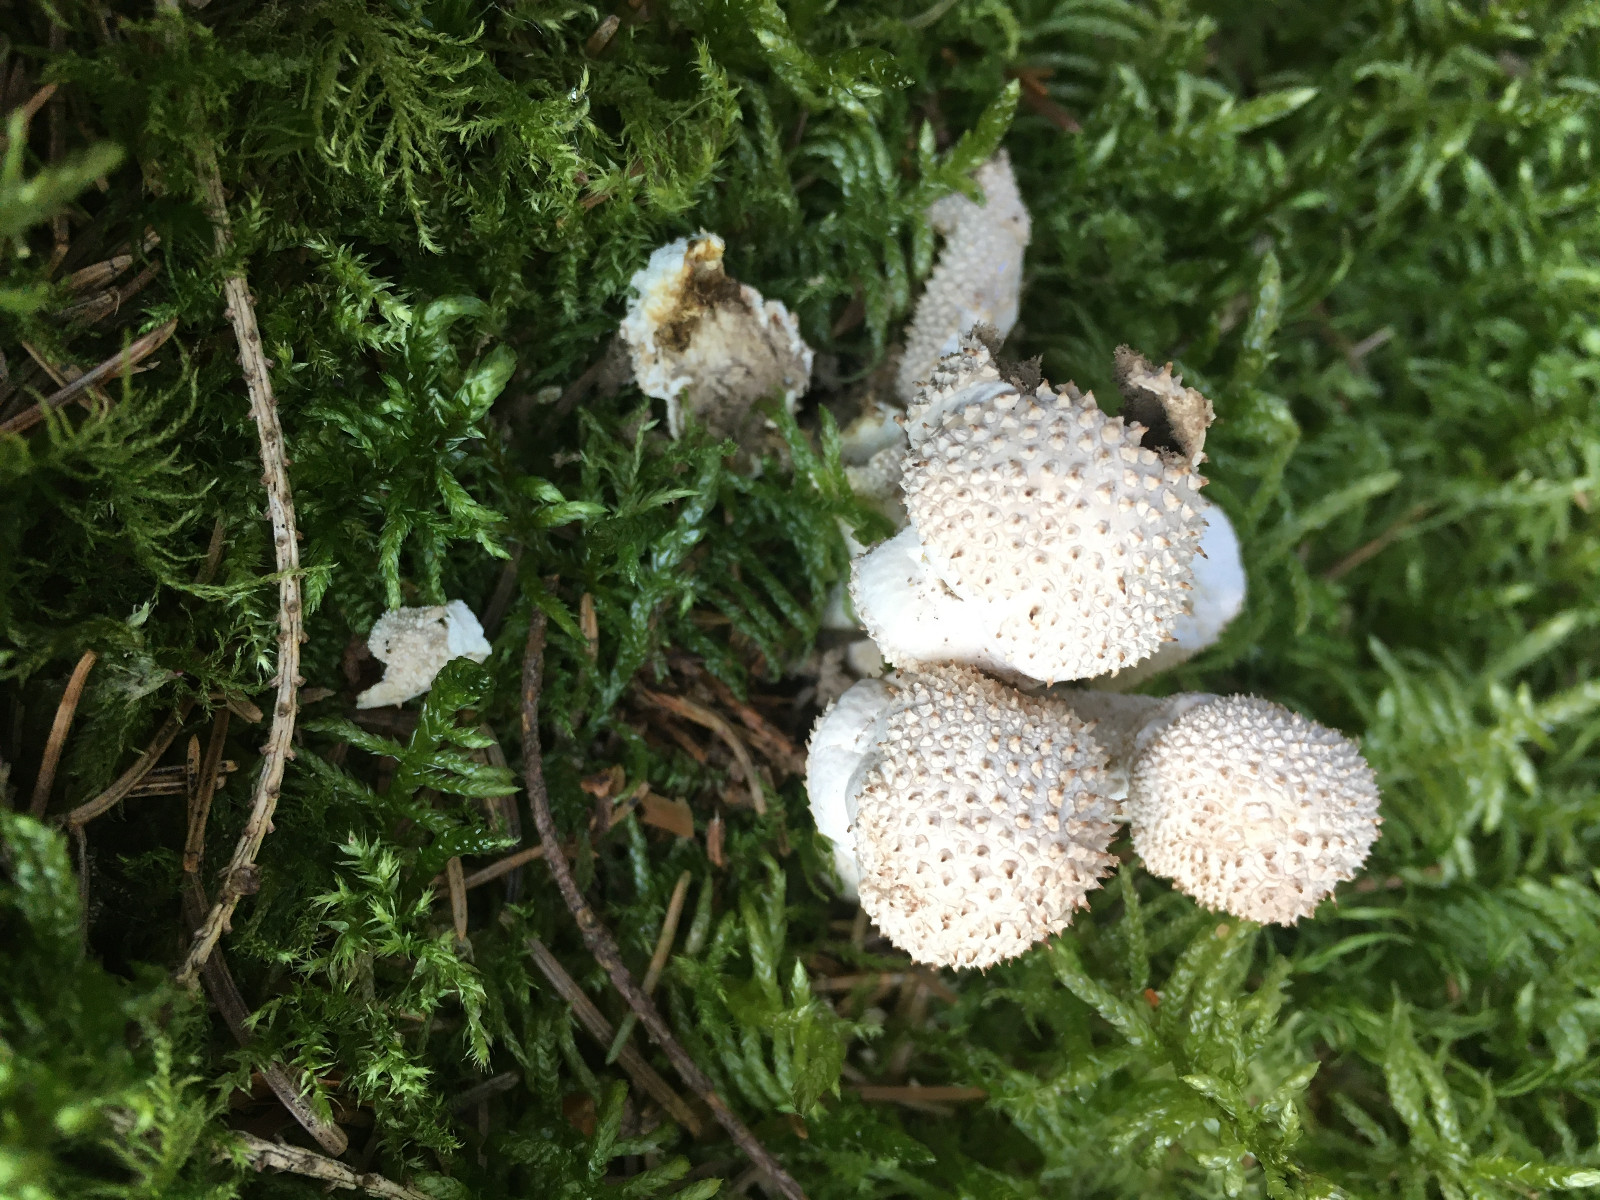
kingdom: Fungi
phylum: Basidiomycota
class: Agaricomycetes
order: Agaricales
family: Lycoperdaceae
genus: Lycoperdon
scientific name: Lycoperdon perlatum
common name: krystal-støvbold
